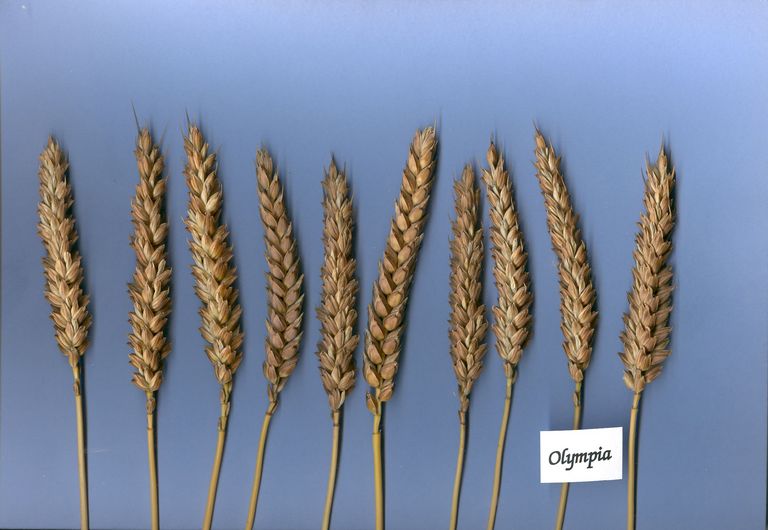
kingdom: Plantae
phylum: Tracheophyta
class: Liliopsida
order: Poales
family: Poaceae
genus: Triticum
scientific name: Triticum aestivum
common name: Common wheat
